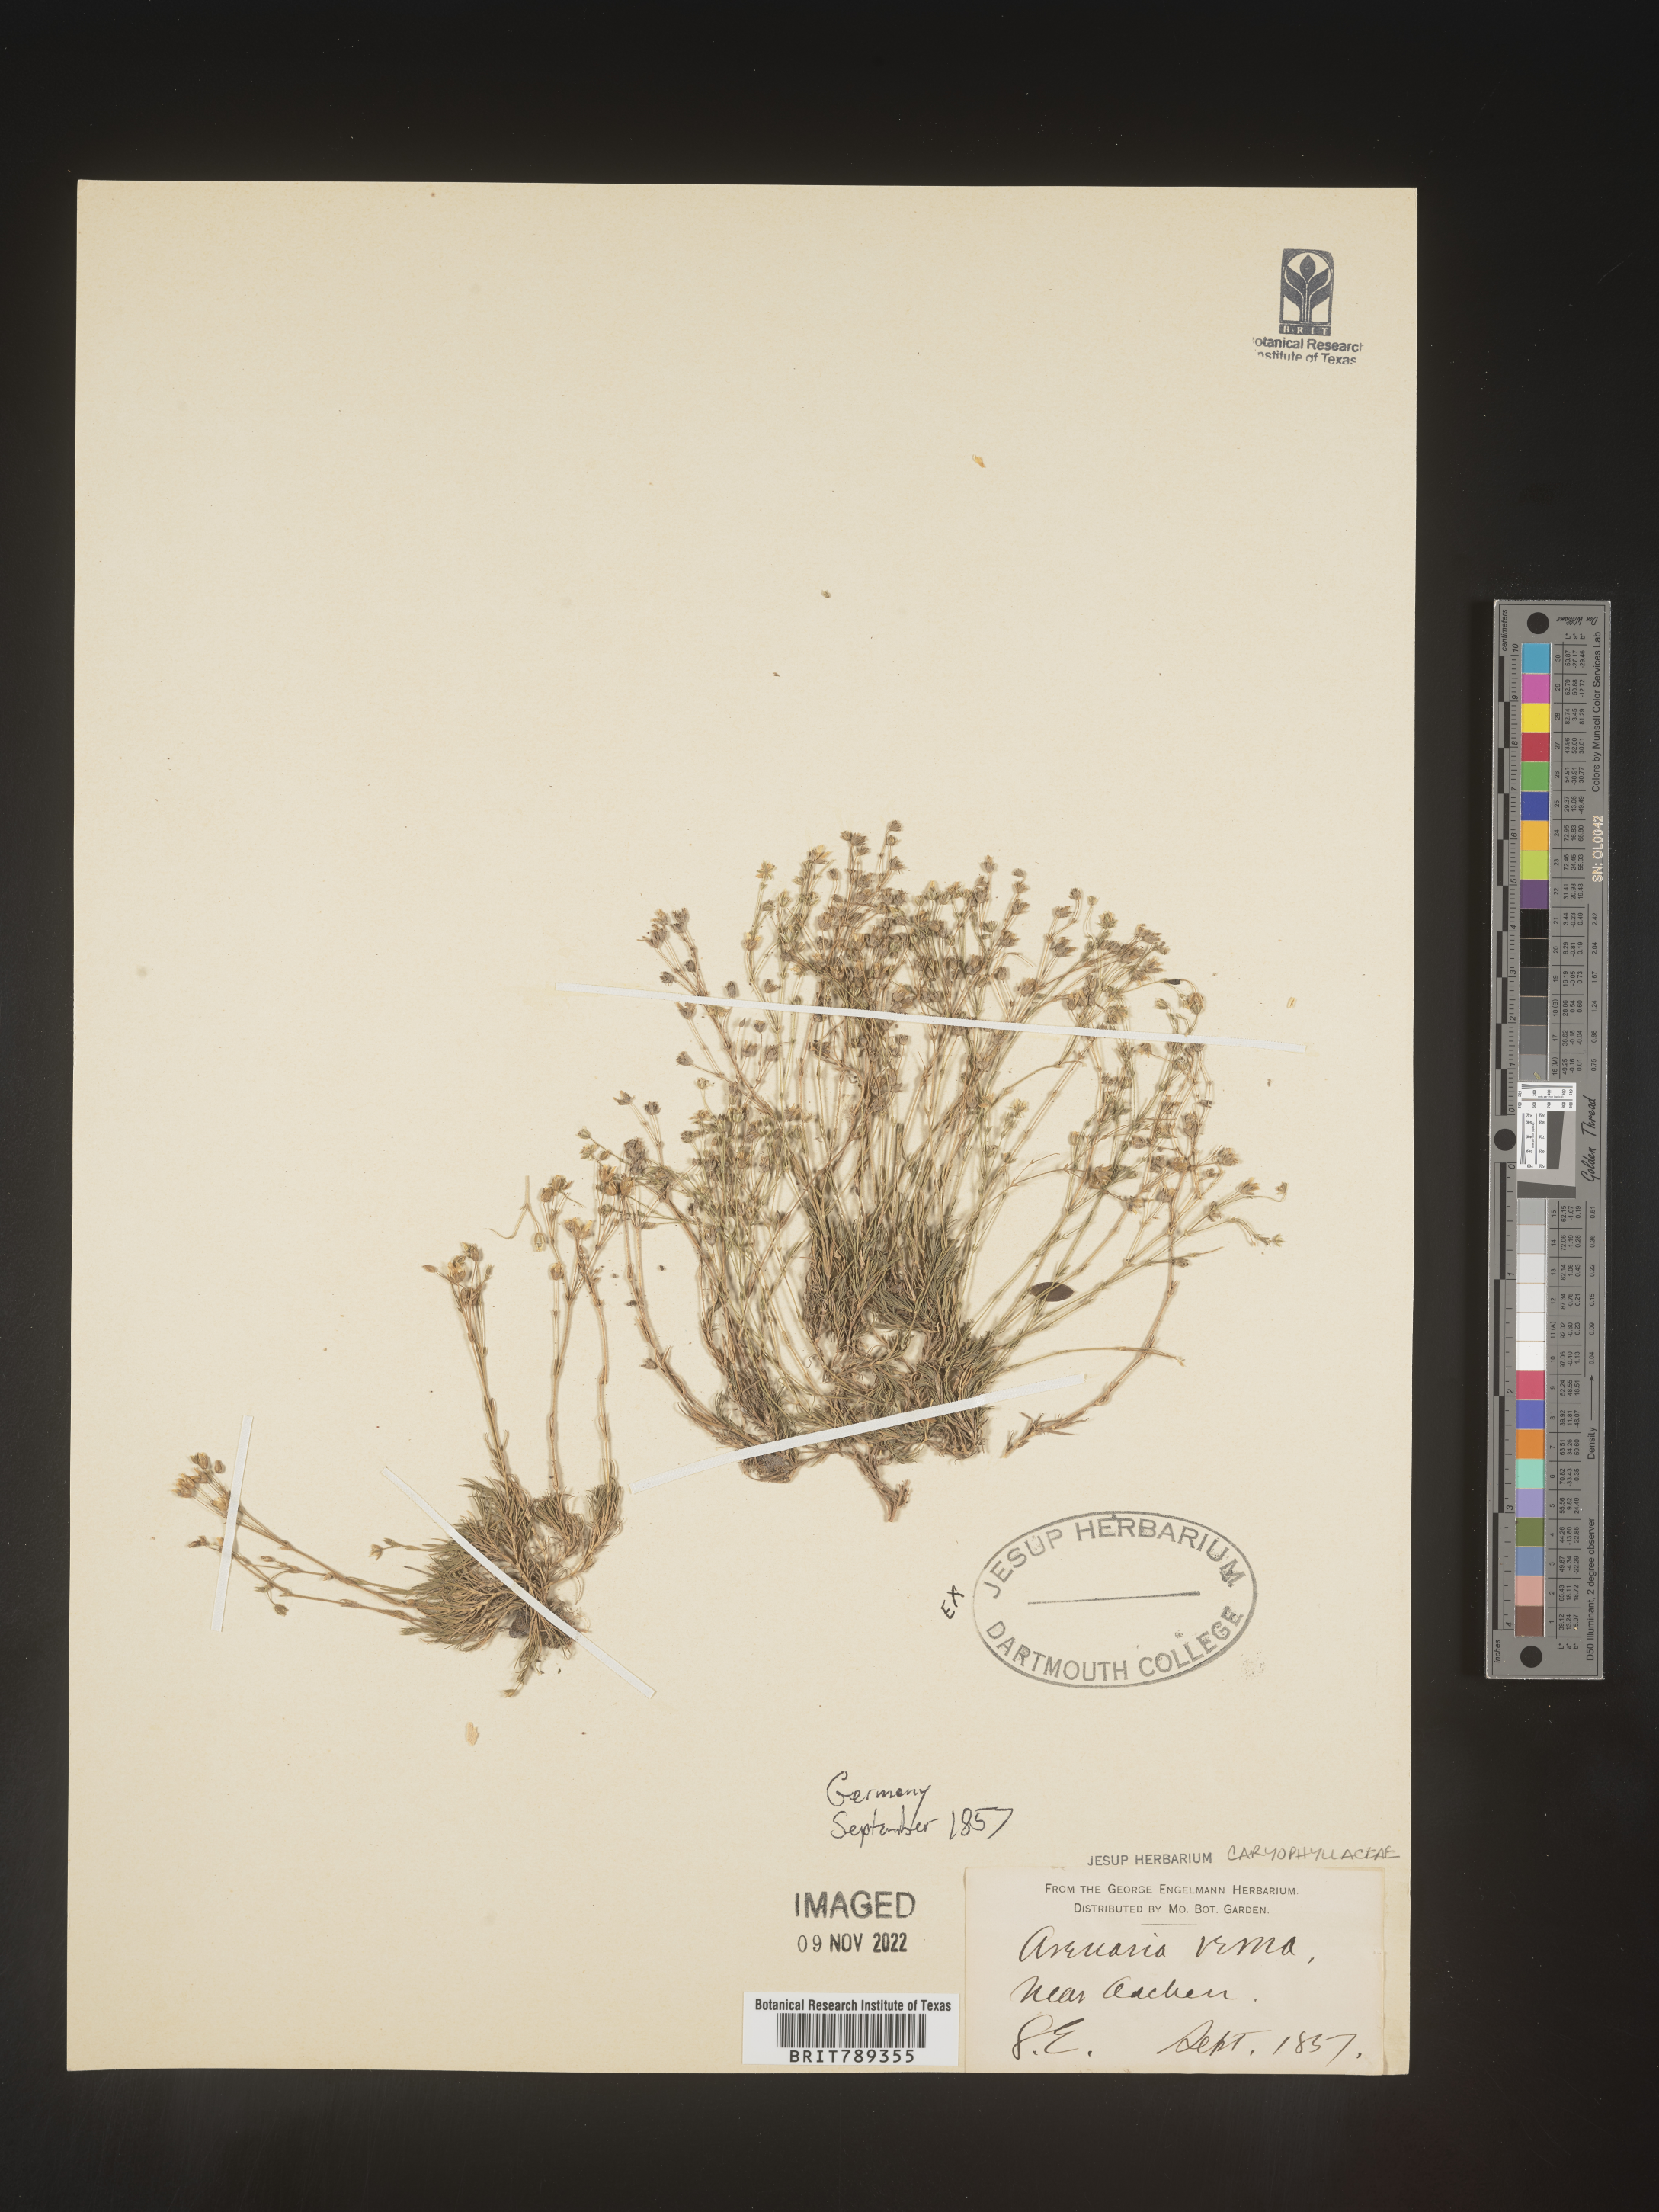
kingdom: Plantae
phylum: Tracheophyta
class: Magnoliopsida
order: Caryophyllales
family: Caryophyllaceae
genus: Arenaria
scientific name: Arenaria
